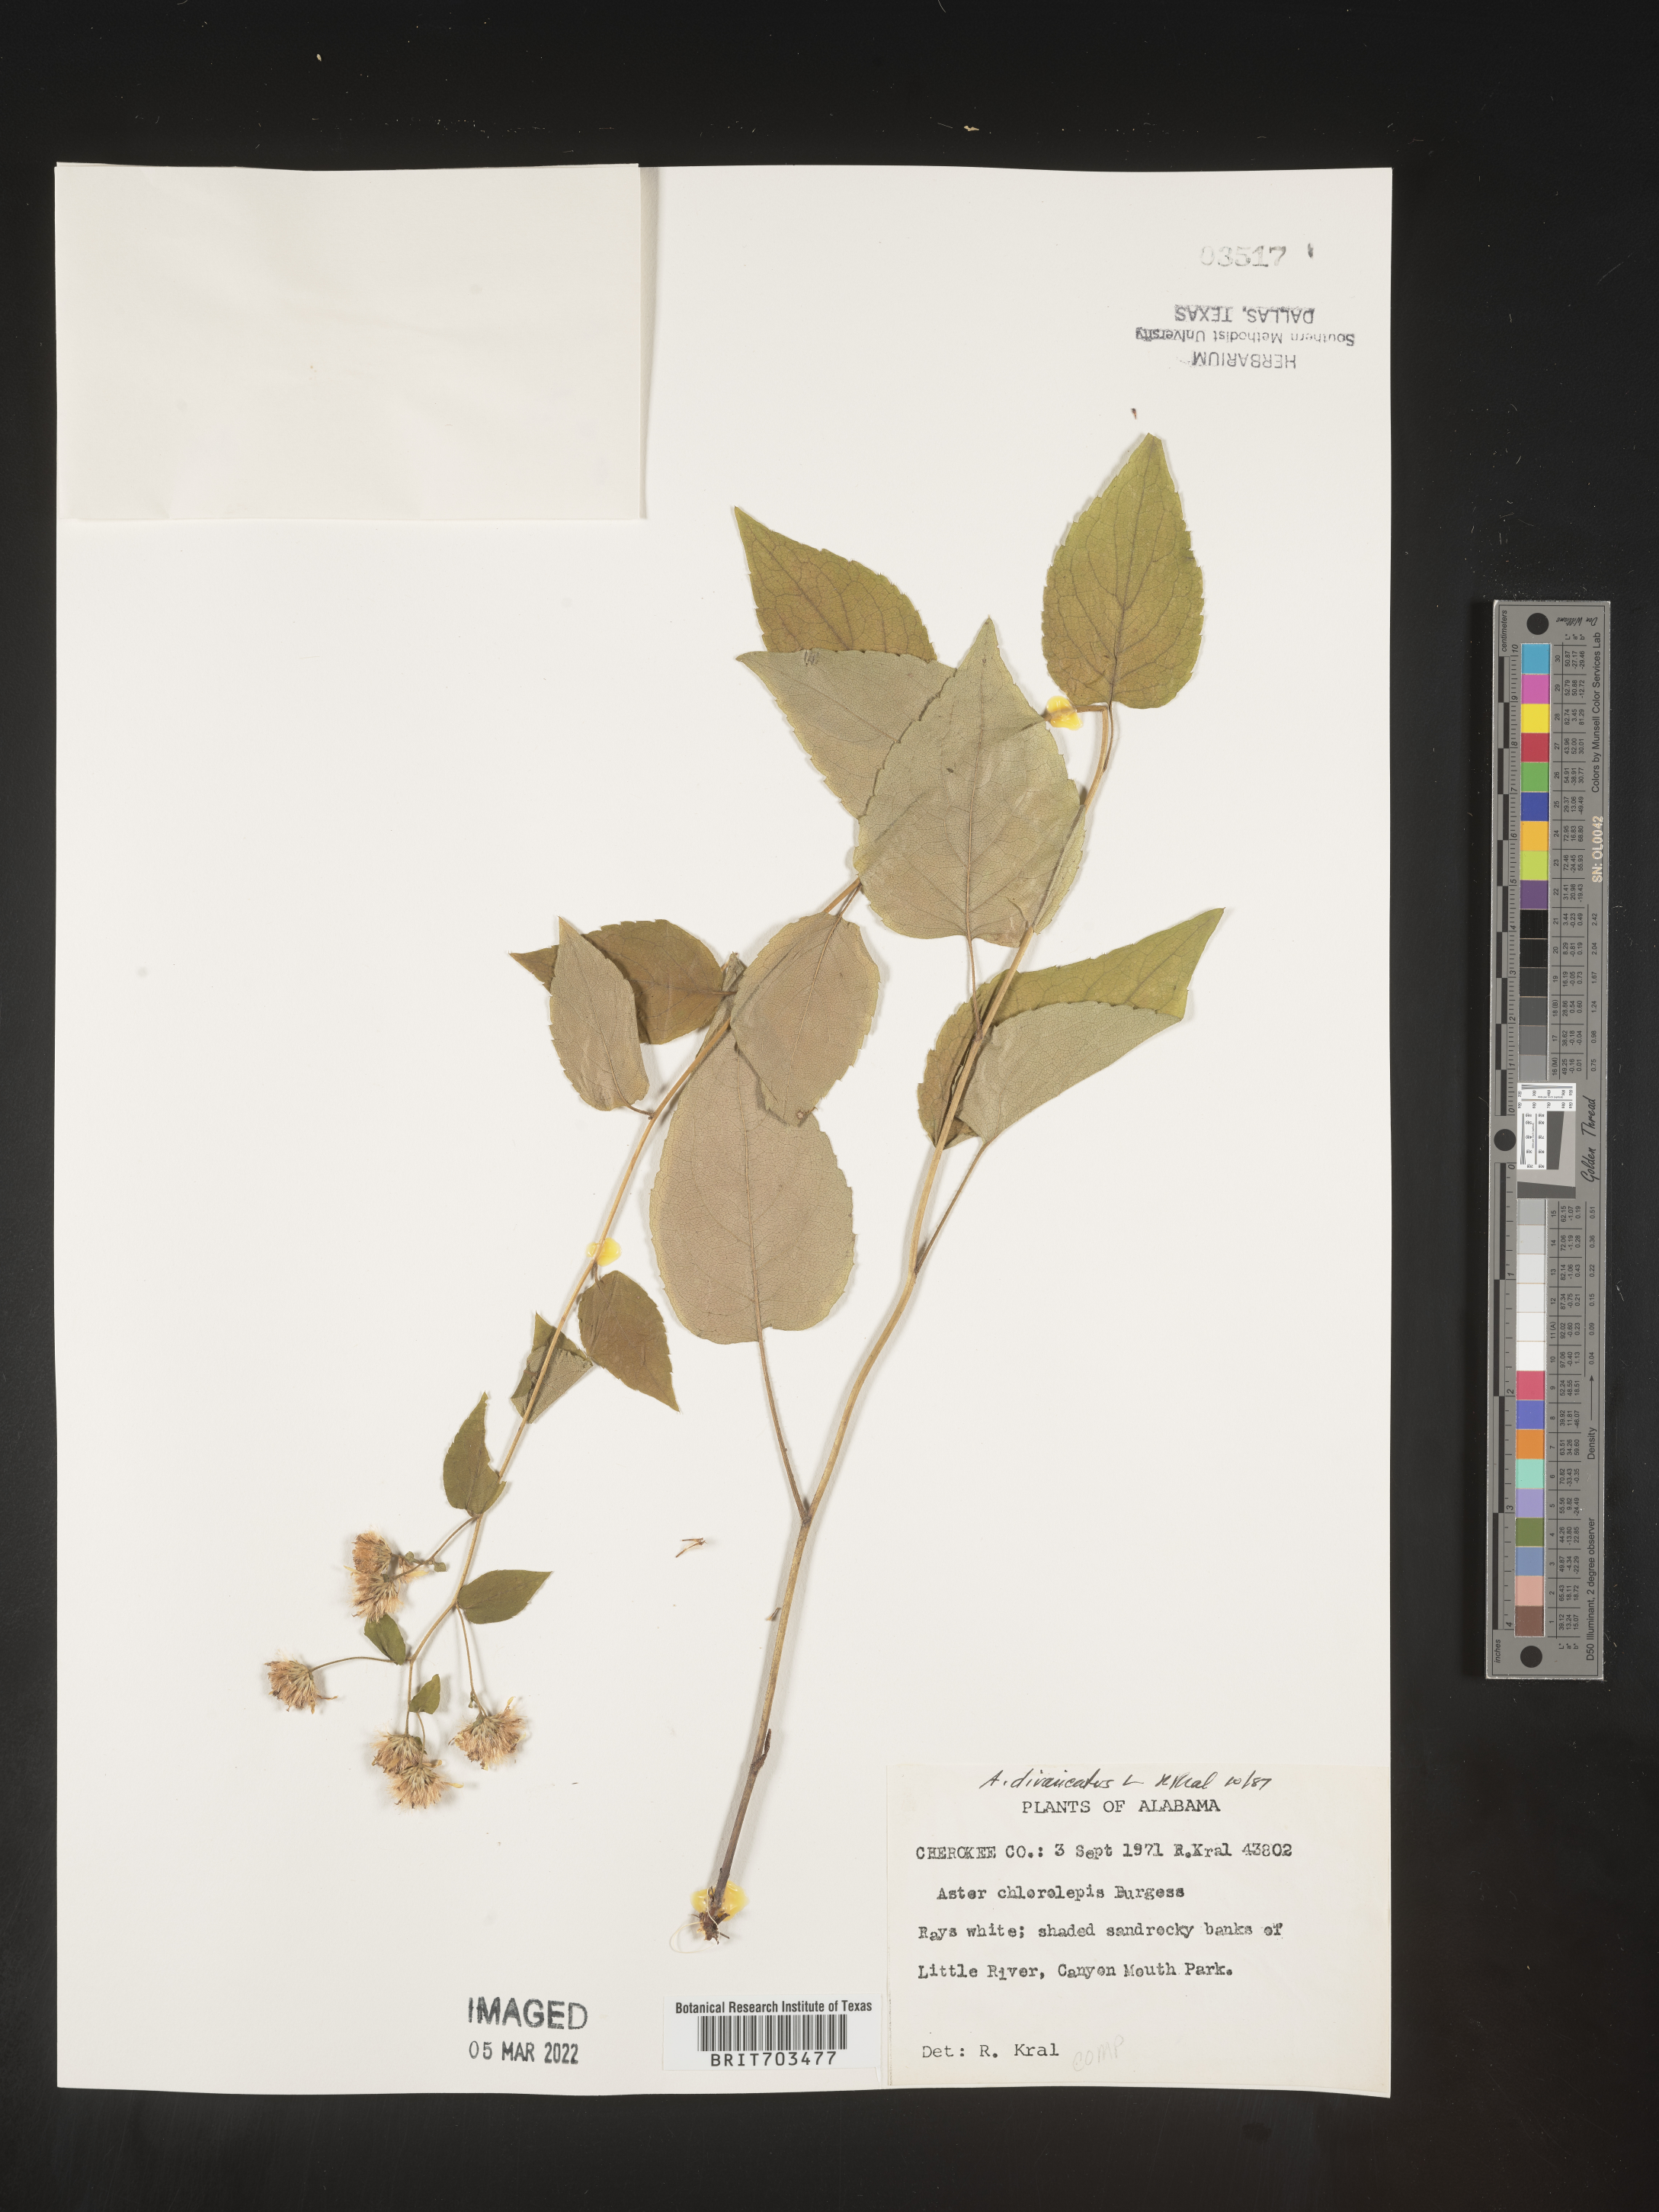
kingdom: Plantae
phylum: Tracheophyta
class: Magnoliopsida
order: Asterales
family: Asteraceae
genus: Eurybia
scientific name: Eurybia divaricata
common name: White wood aster
